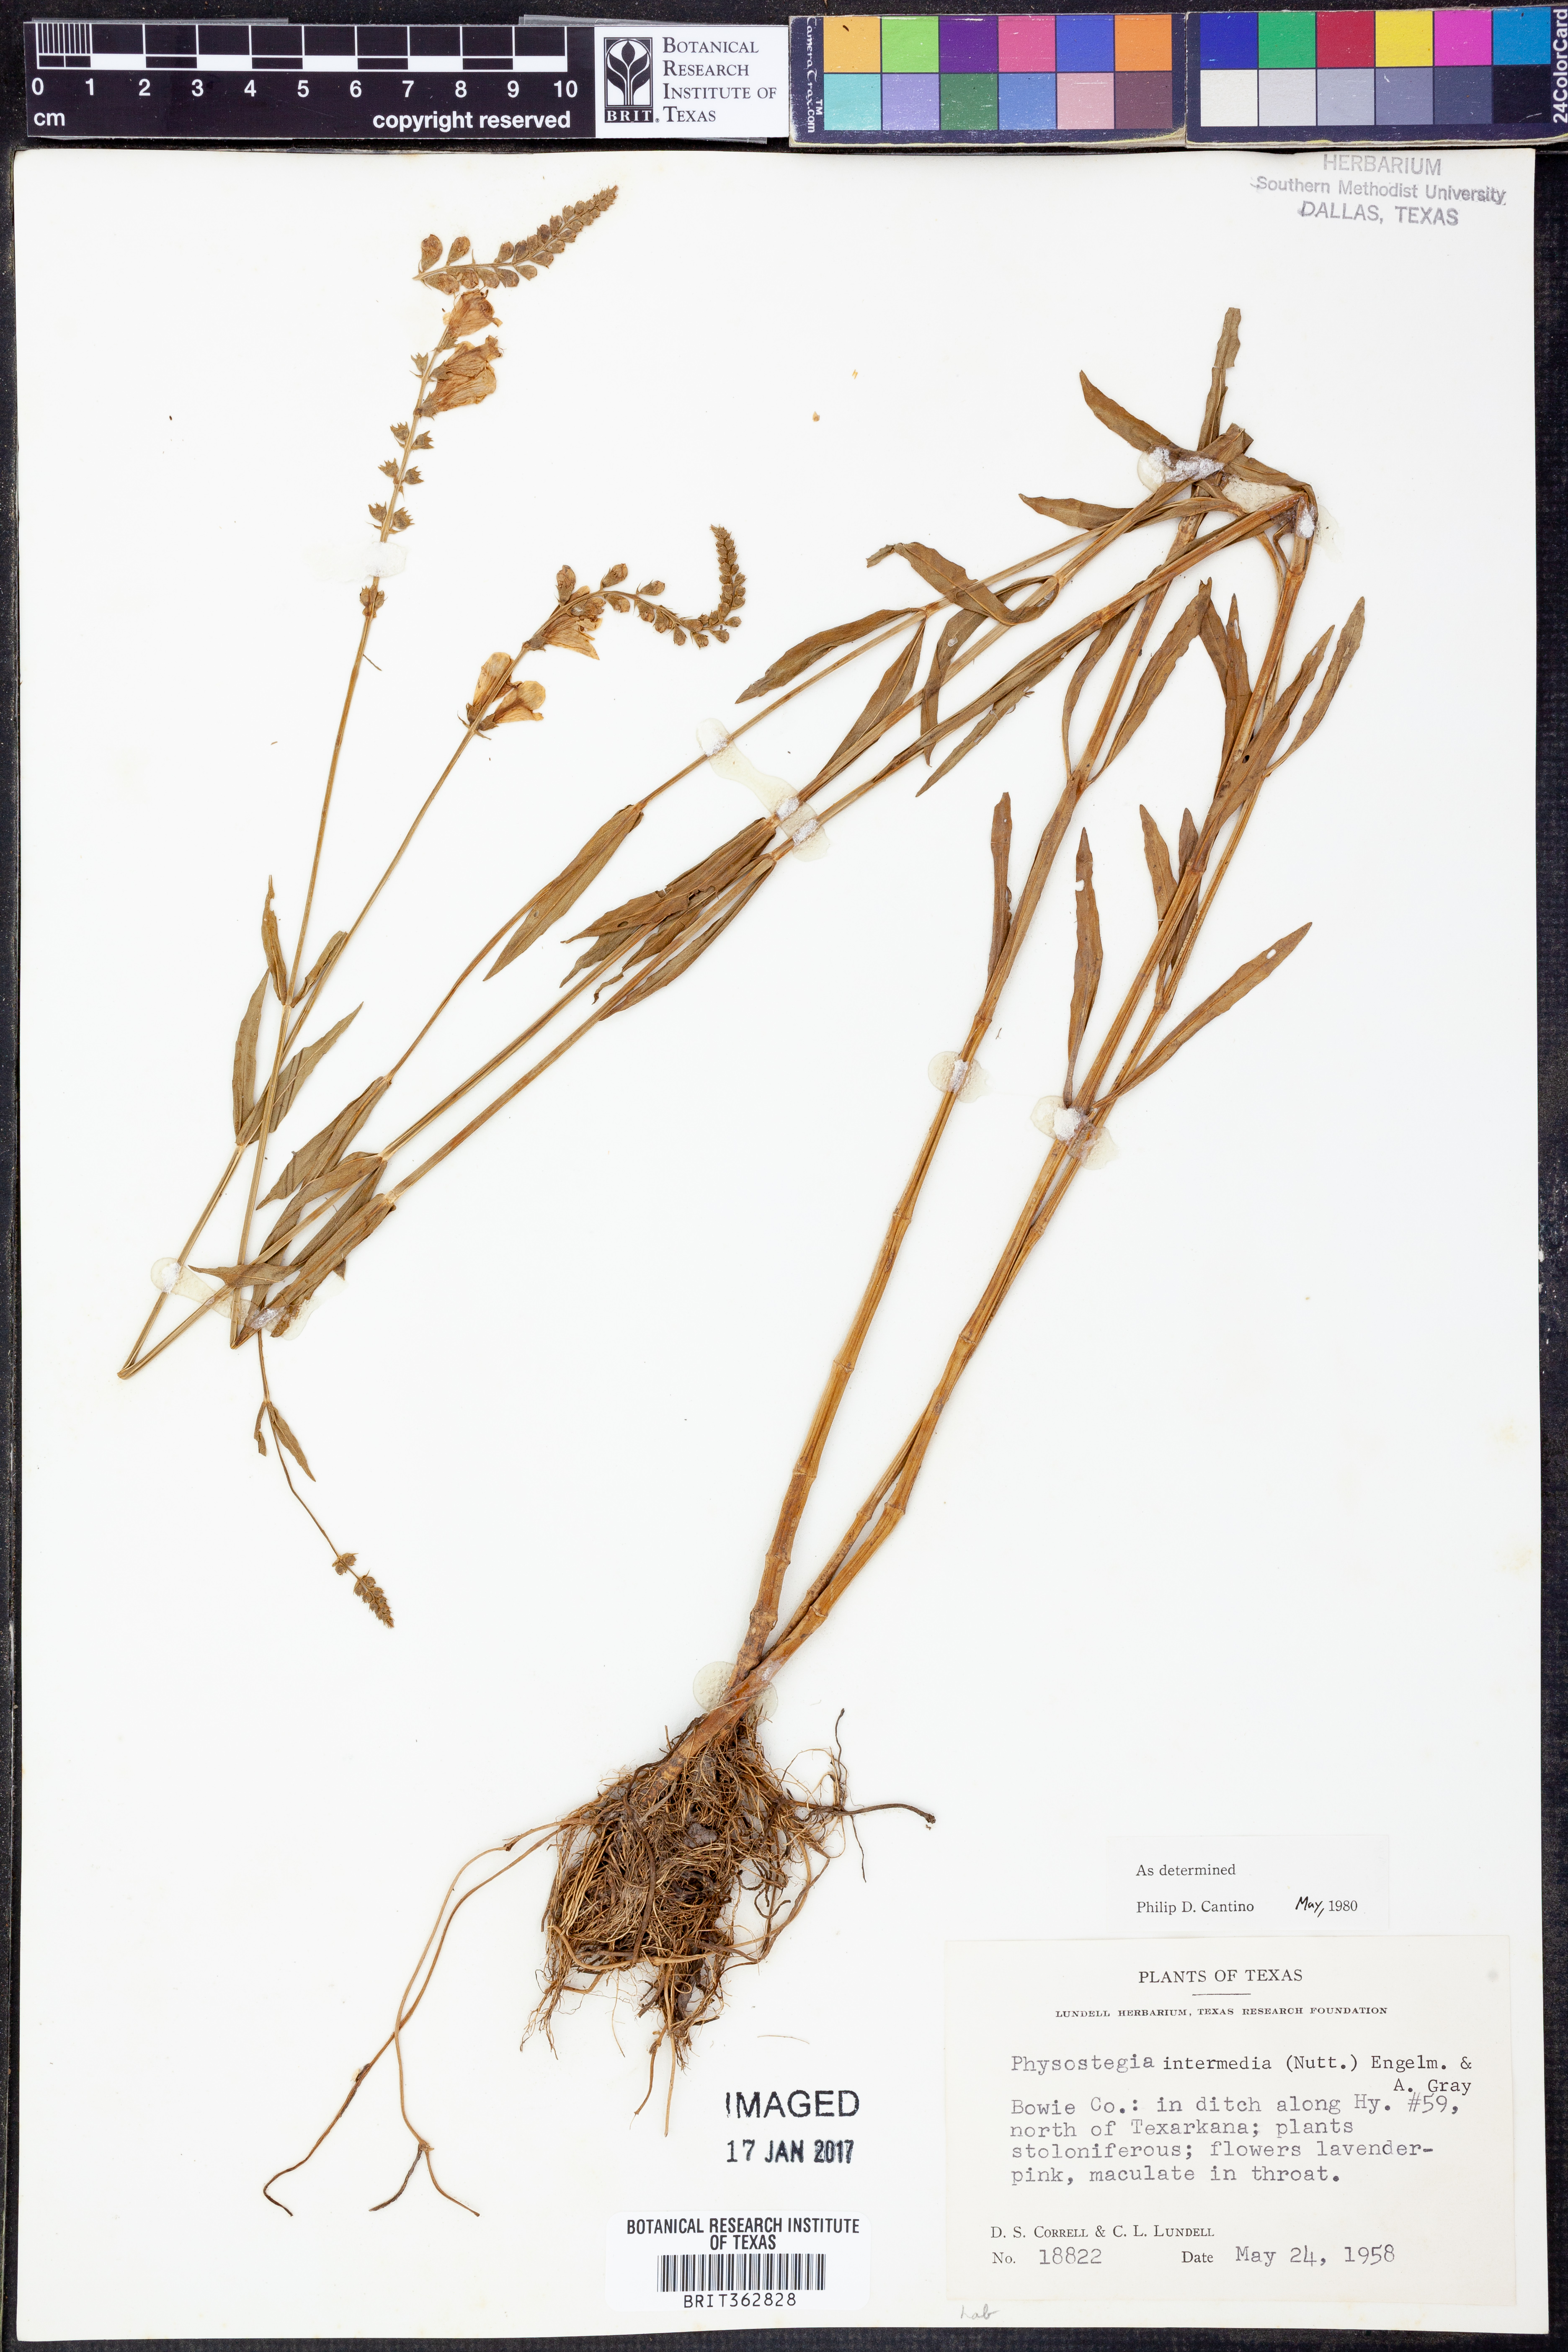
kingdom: Plantae
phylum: Tracheophyta
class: Magnoliopsida
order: Lamiales
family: Lamiaceae
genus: Physostegia
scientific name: Physostegia intermedia
